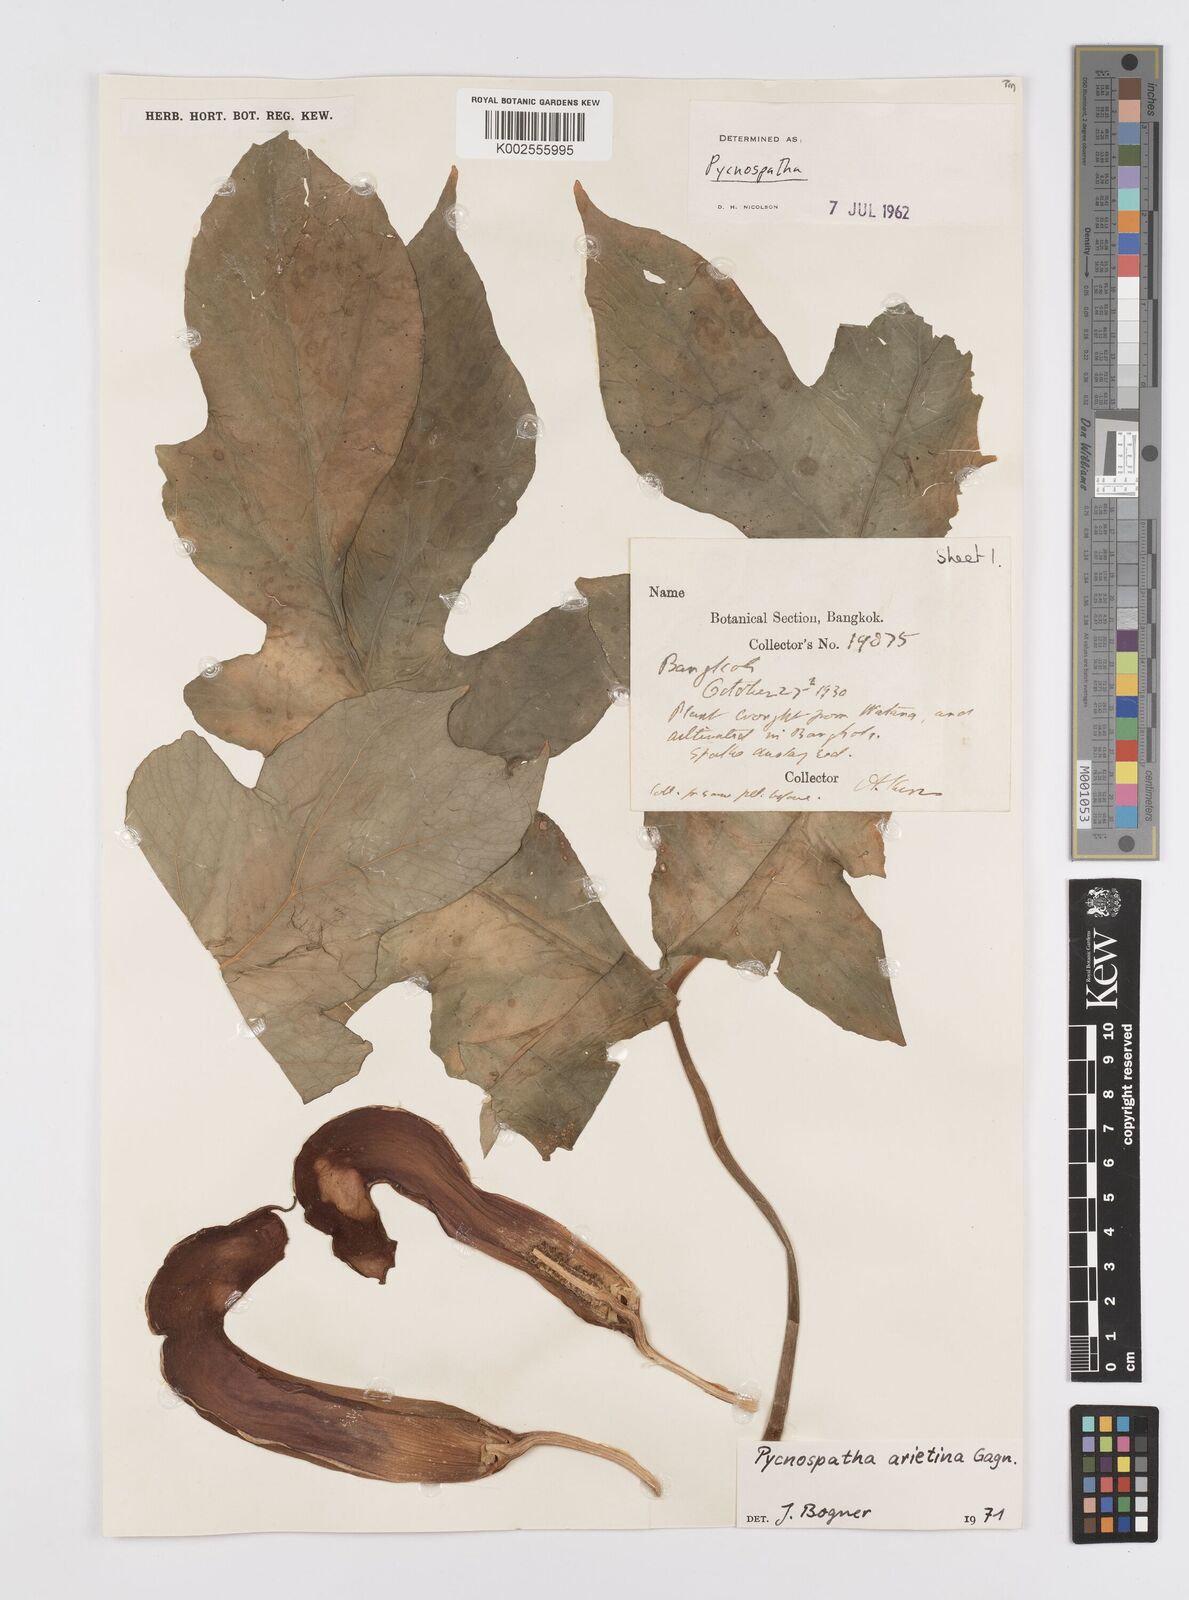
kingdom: Plantae
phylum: Tracheophyta
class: Liliopsida
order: Alismatales
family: Araceae
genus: Pycnospatha
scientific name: Pycnospatha arietina
